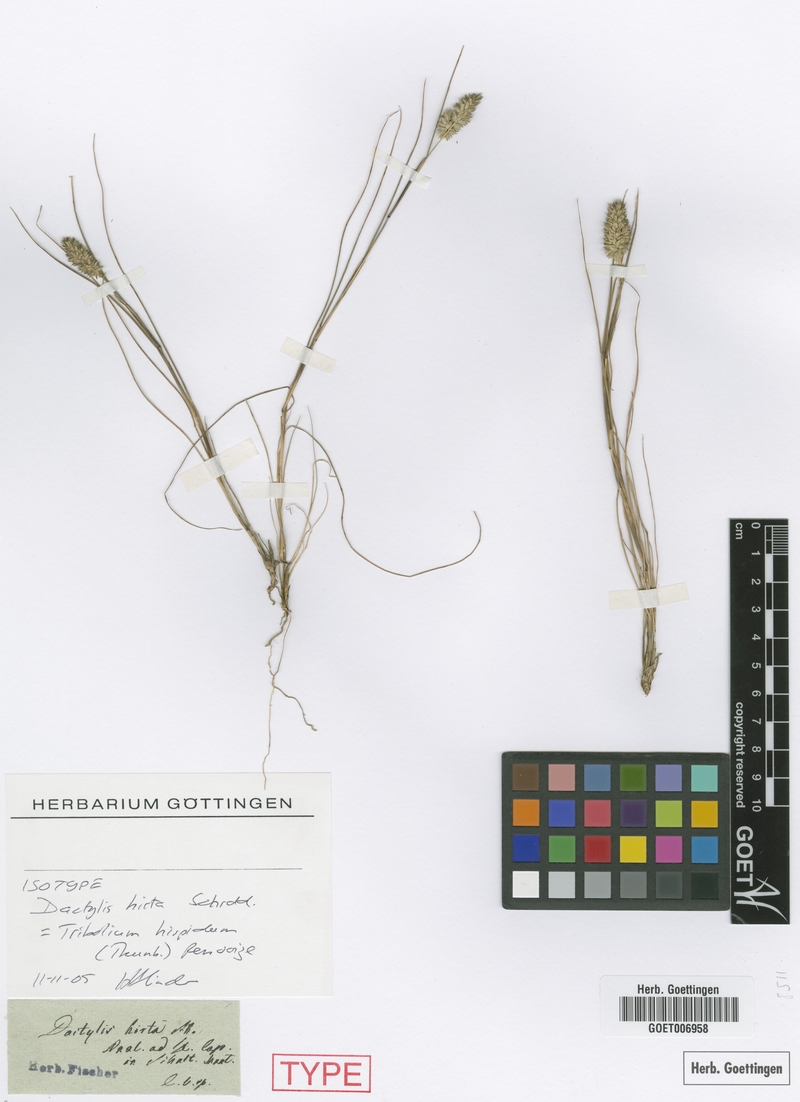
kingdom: Plantae
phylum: Tracheophyta
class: Liliopsida
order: Poales
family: Poaceae
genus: Tribolium
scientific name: Tribolium hispidum
